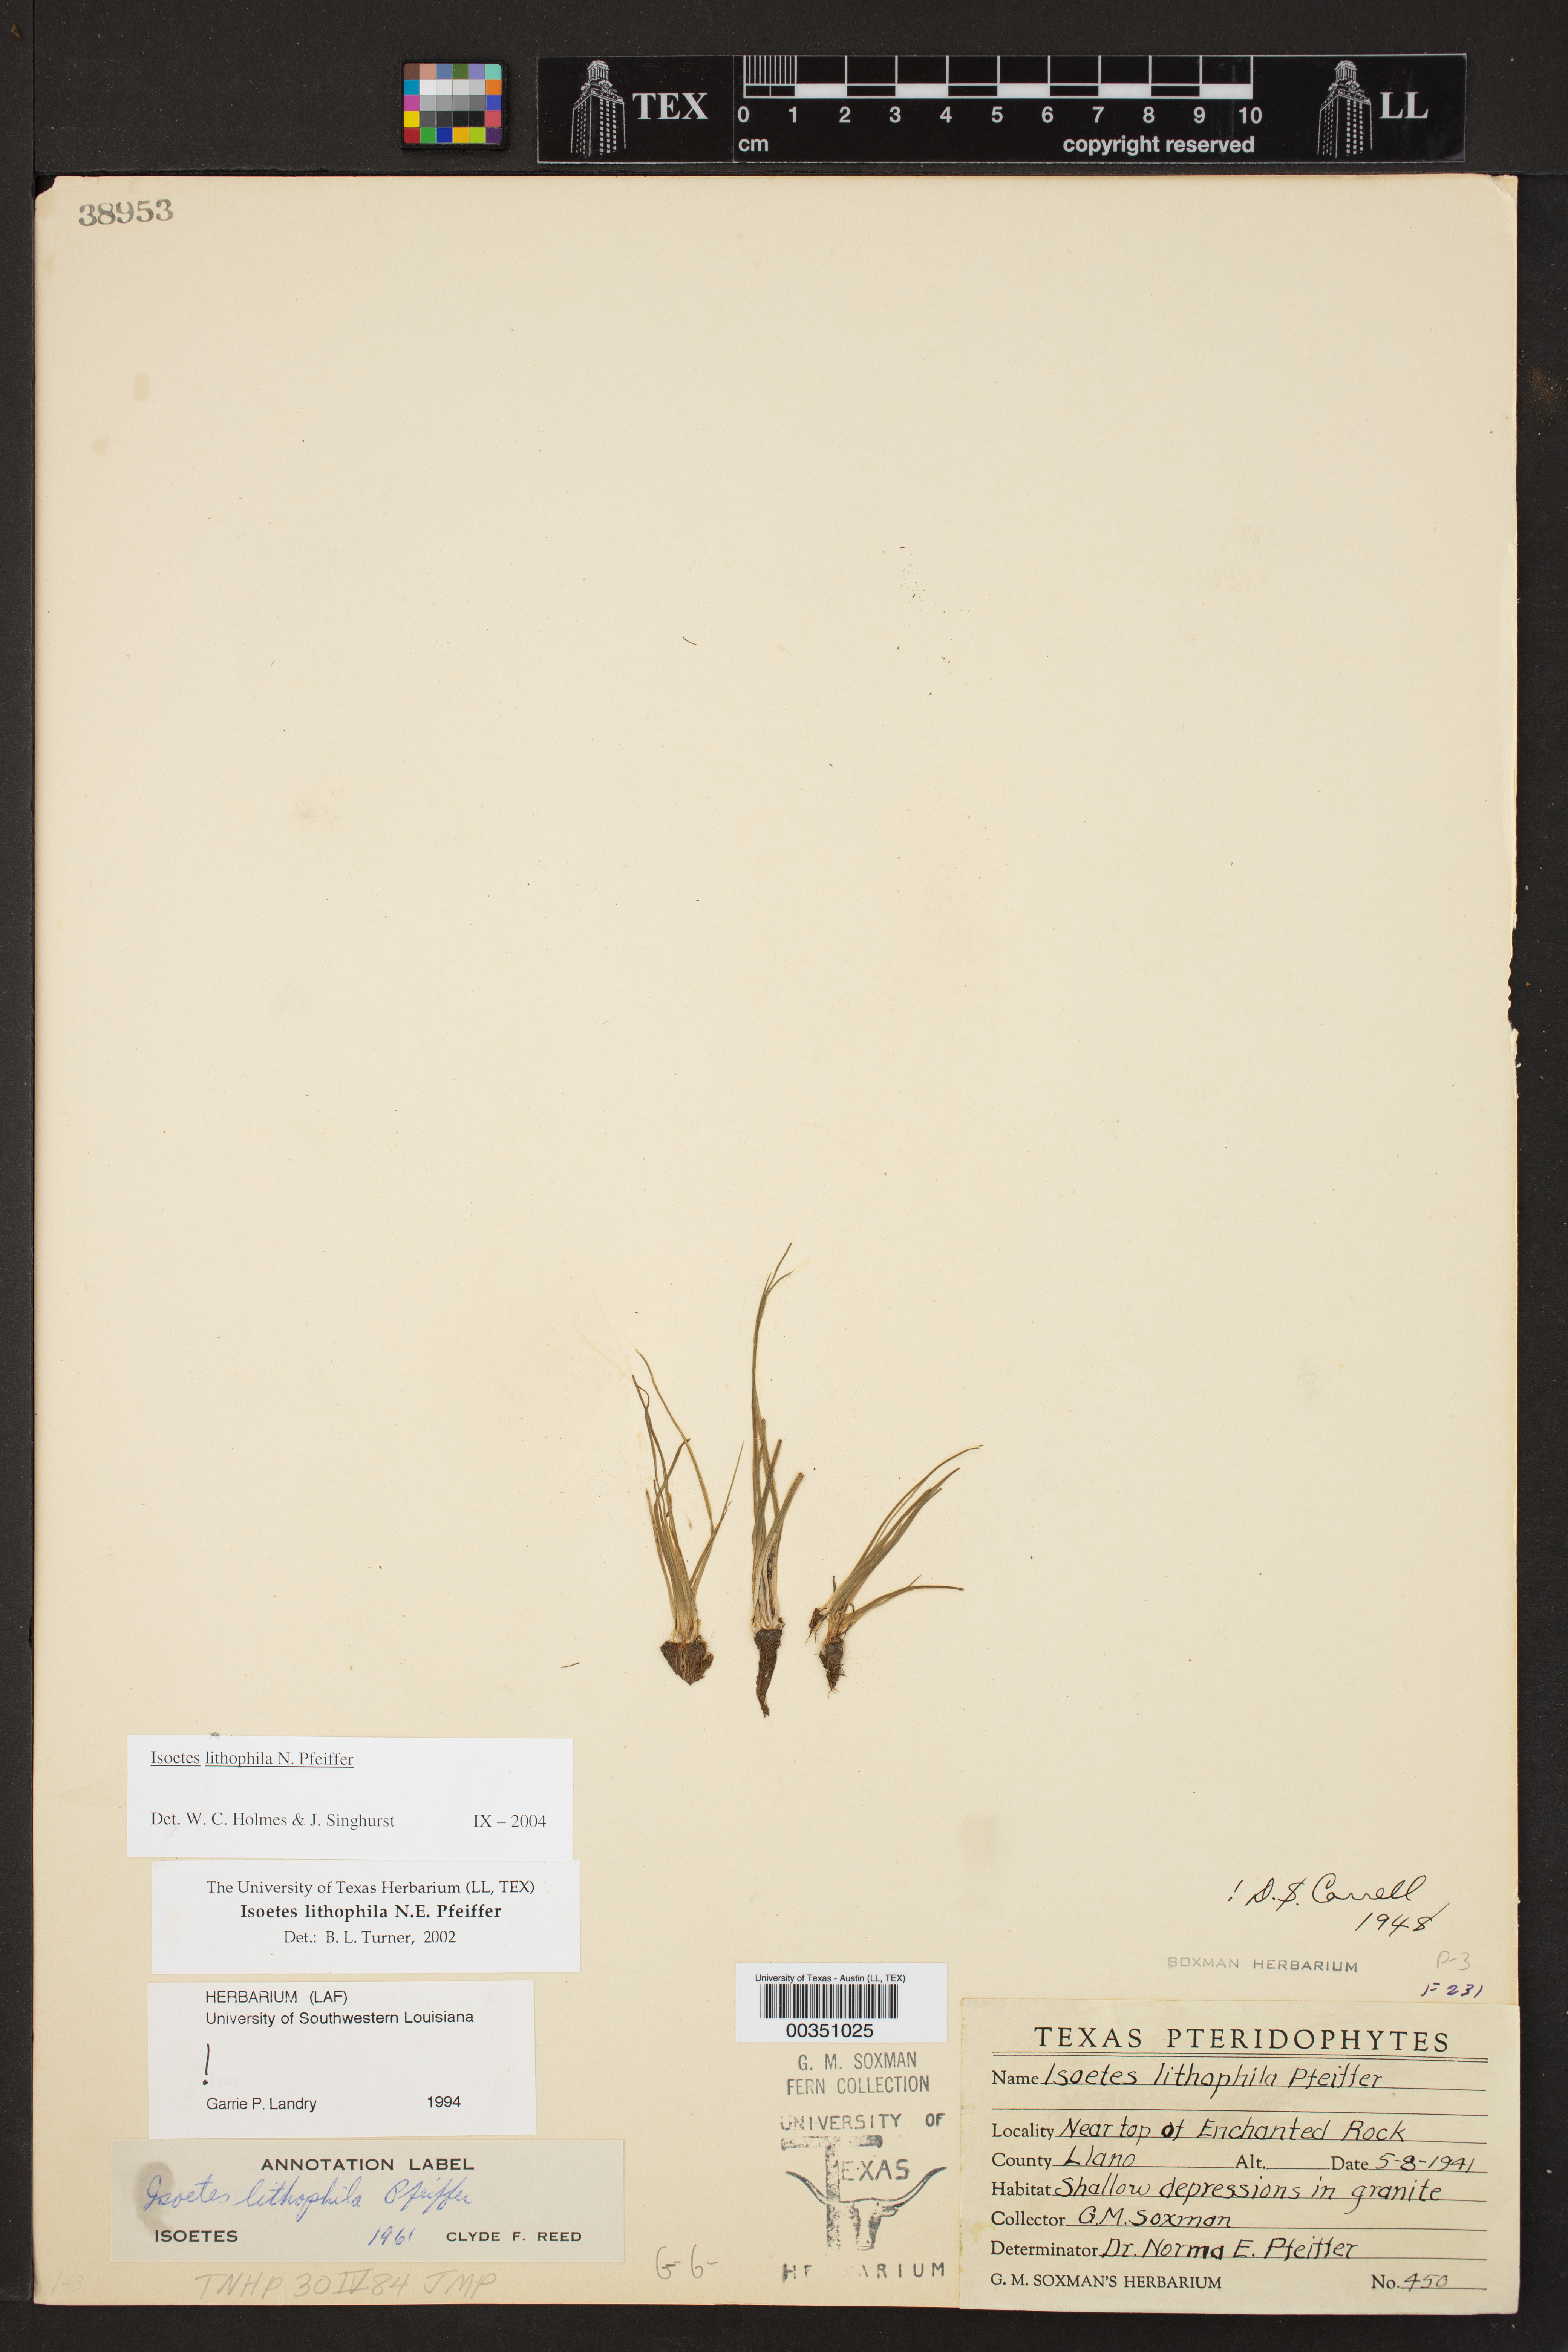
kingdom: Plantae
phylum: Tracheophyta
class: Lycopodiopsida
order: Isoetales
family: Isoetaceae
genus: Isoetes
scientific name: Isoetes lithophila
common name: Rock quillwort
